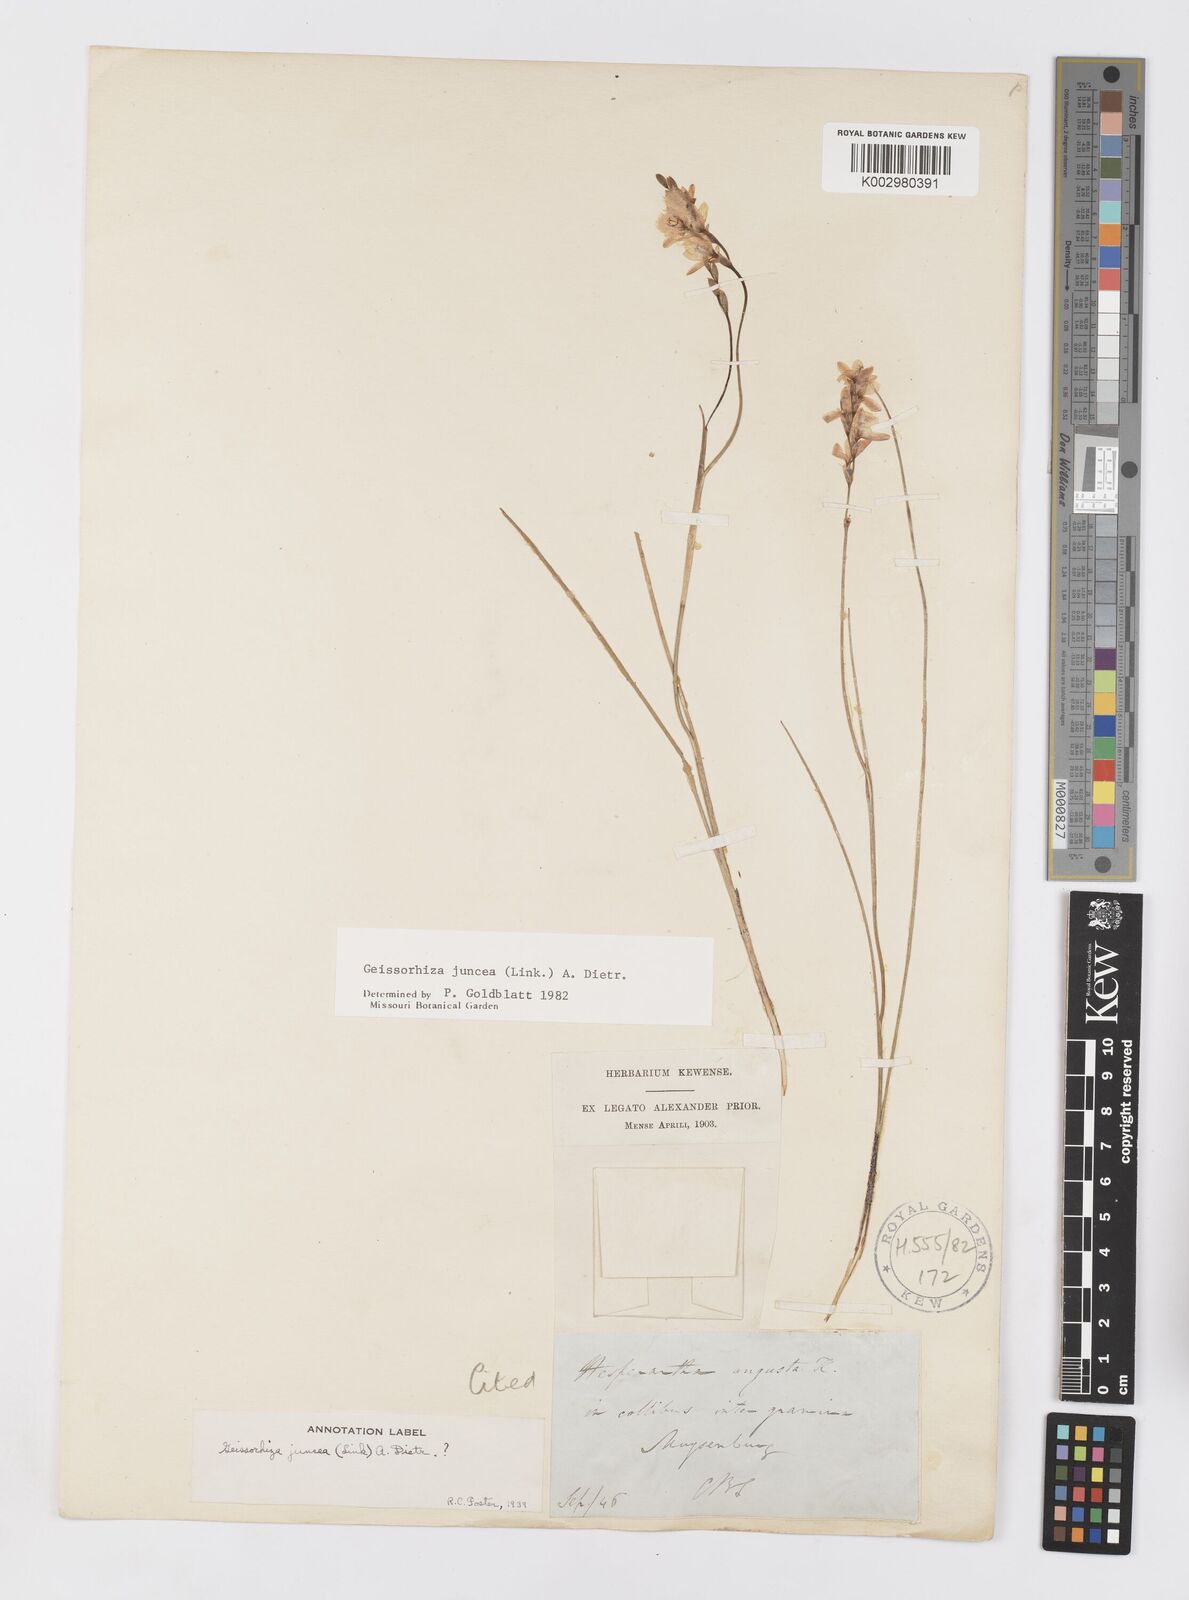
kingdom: Plantae
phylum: Tracheophyta
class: Liliopsida
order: Asparagales
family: Iridaceae
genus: Geissorhiza
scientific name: Geissorhiza juncea
